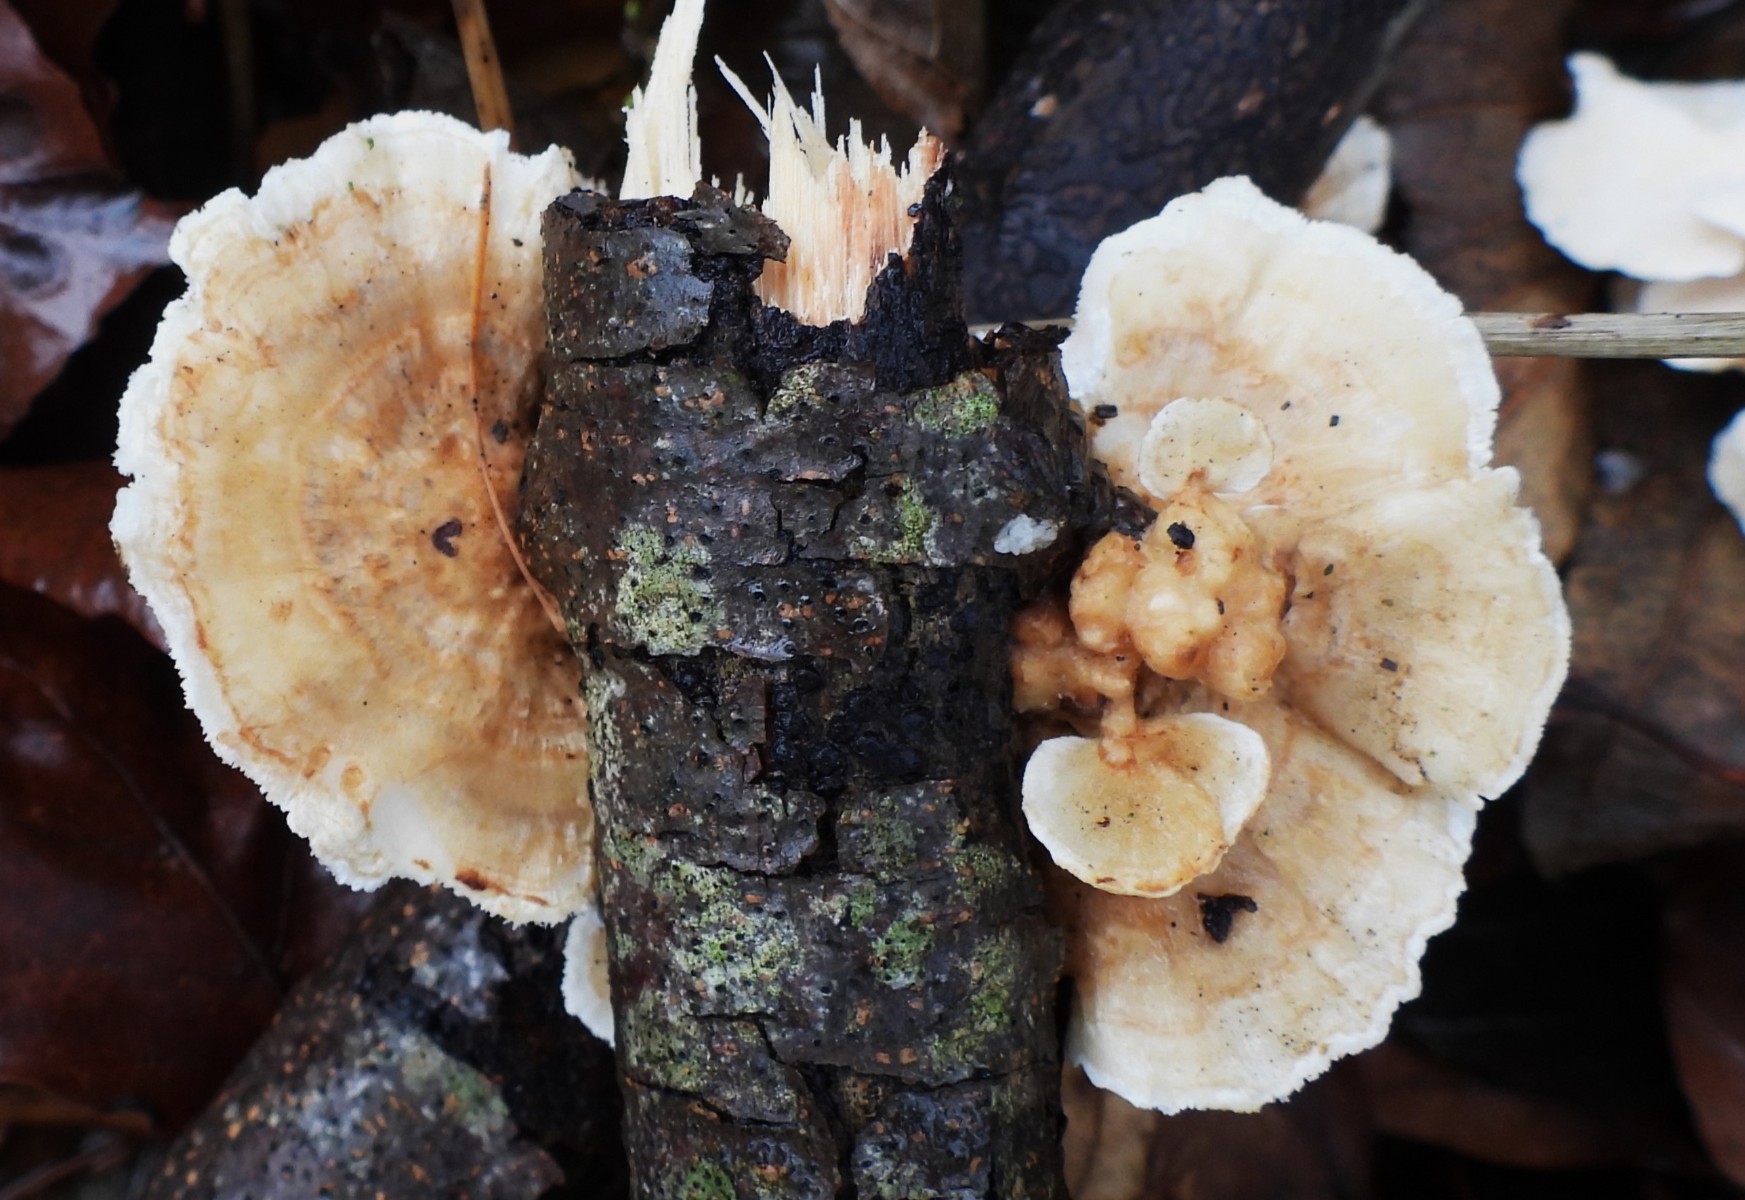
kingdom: Fungi
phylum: Basidiomycota
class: Agaricomycetes
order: Polyporales
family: Polyporaceae
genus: Trametes
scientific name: Trametes ochracea
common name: bæltet læderporesvamp
